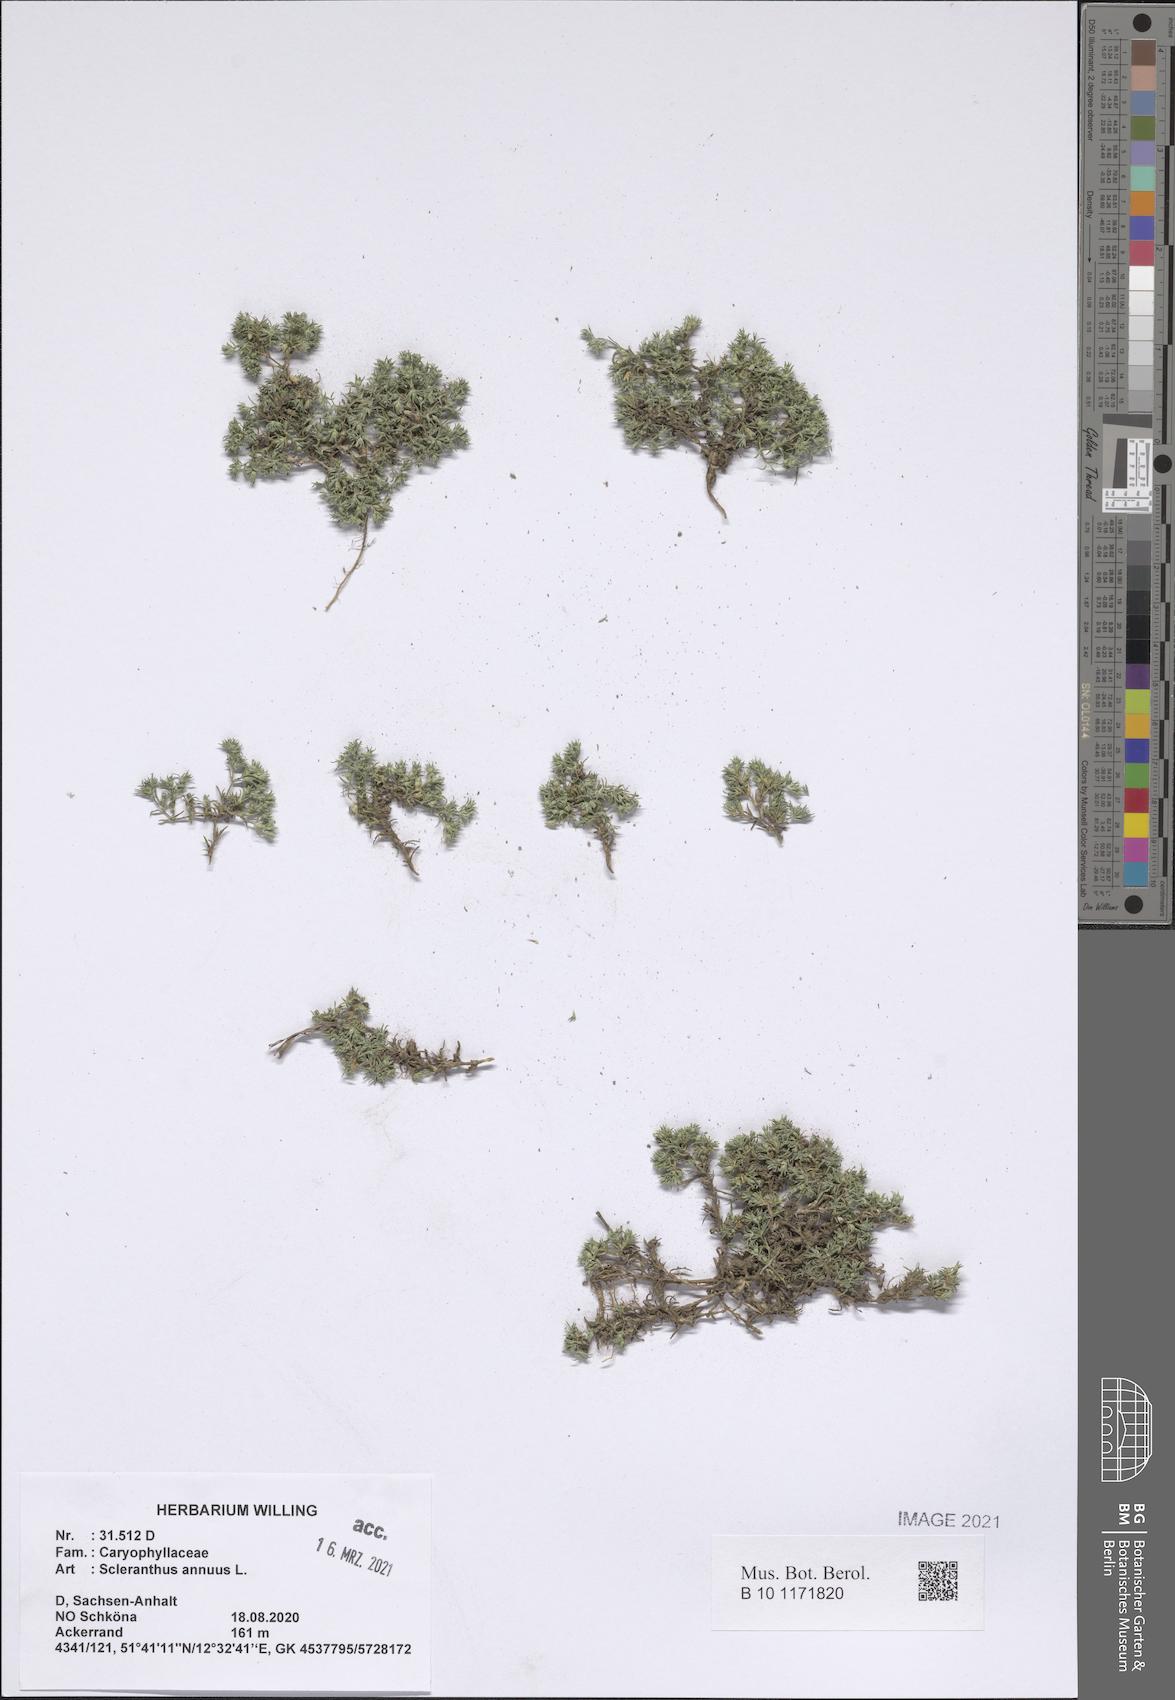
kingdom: Plantae
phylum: Tracheophyta
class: Magnoliopsida
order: Caryophyllales
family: Caryophyllaceae
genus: Scleranthus
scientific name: Scleranthus annuus
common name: Annual knawel
